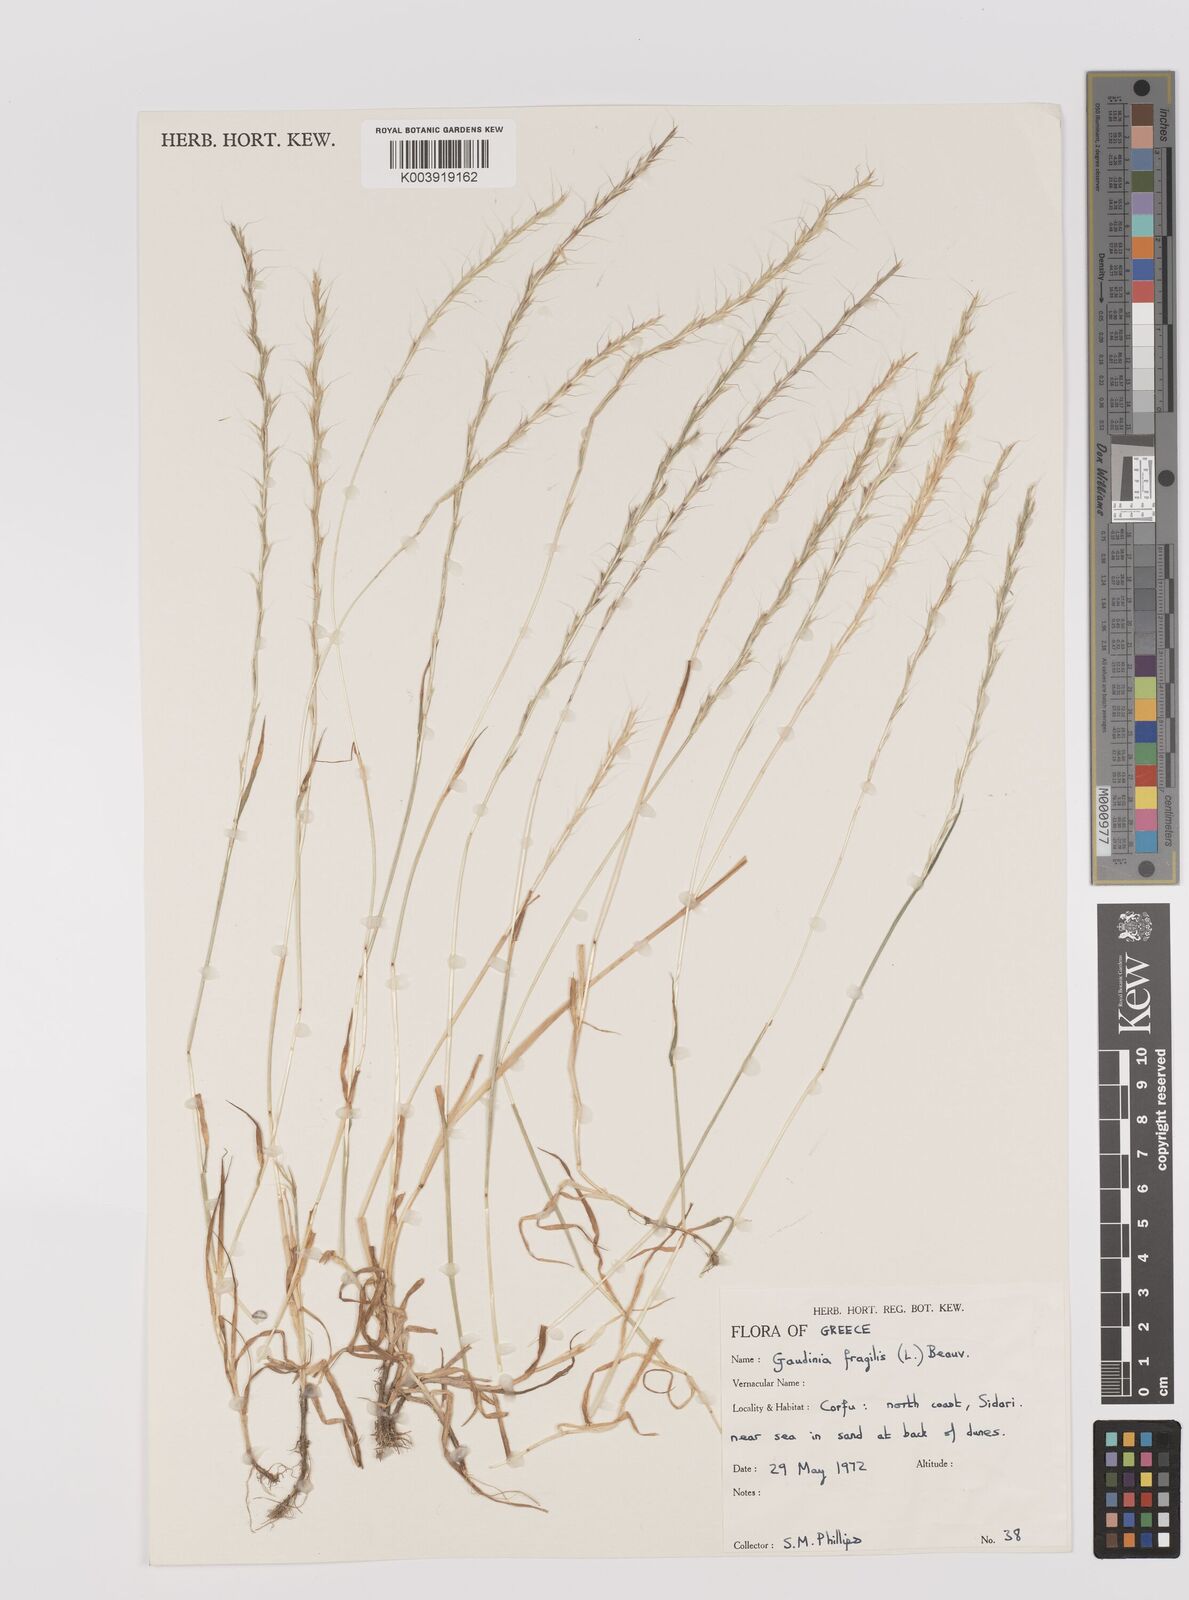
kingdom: Plantae
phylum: Tracheophyta
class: Liliopsida
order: Poales
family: Poaceae
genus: Gaudinia
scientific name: Gaudinia fragilis
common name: French oat-grass
